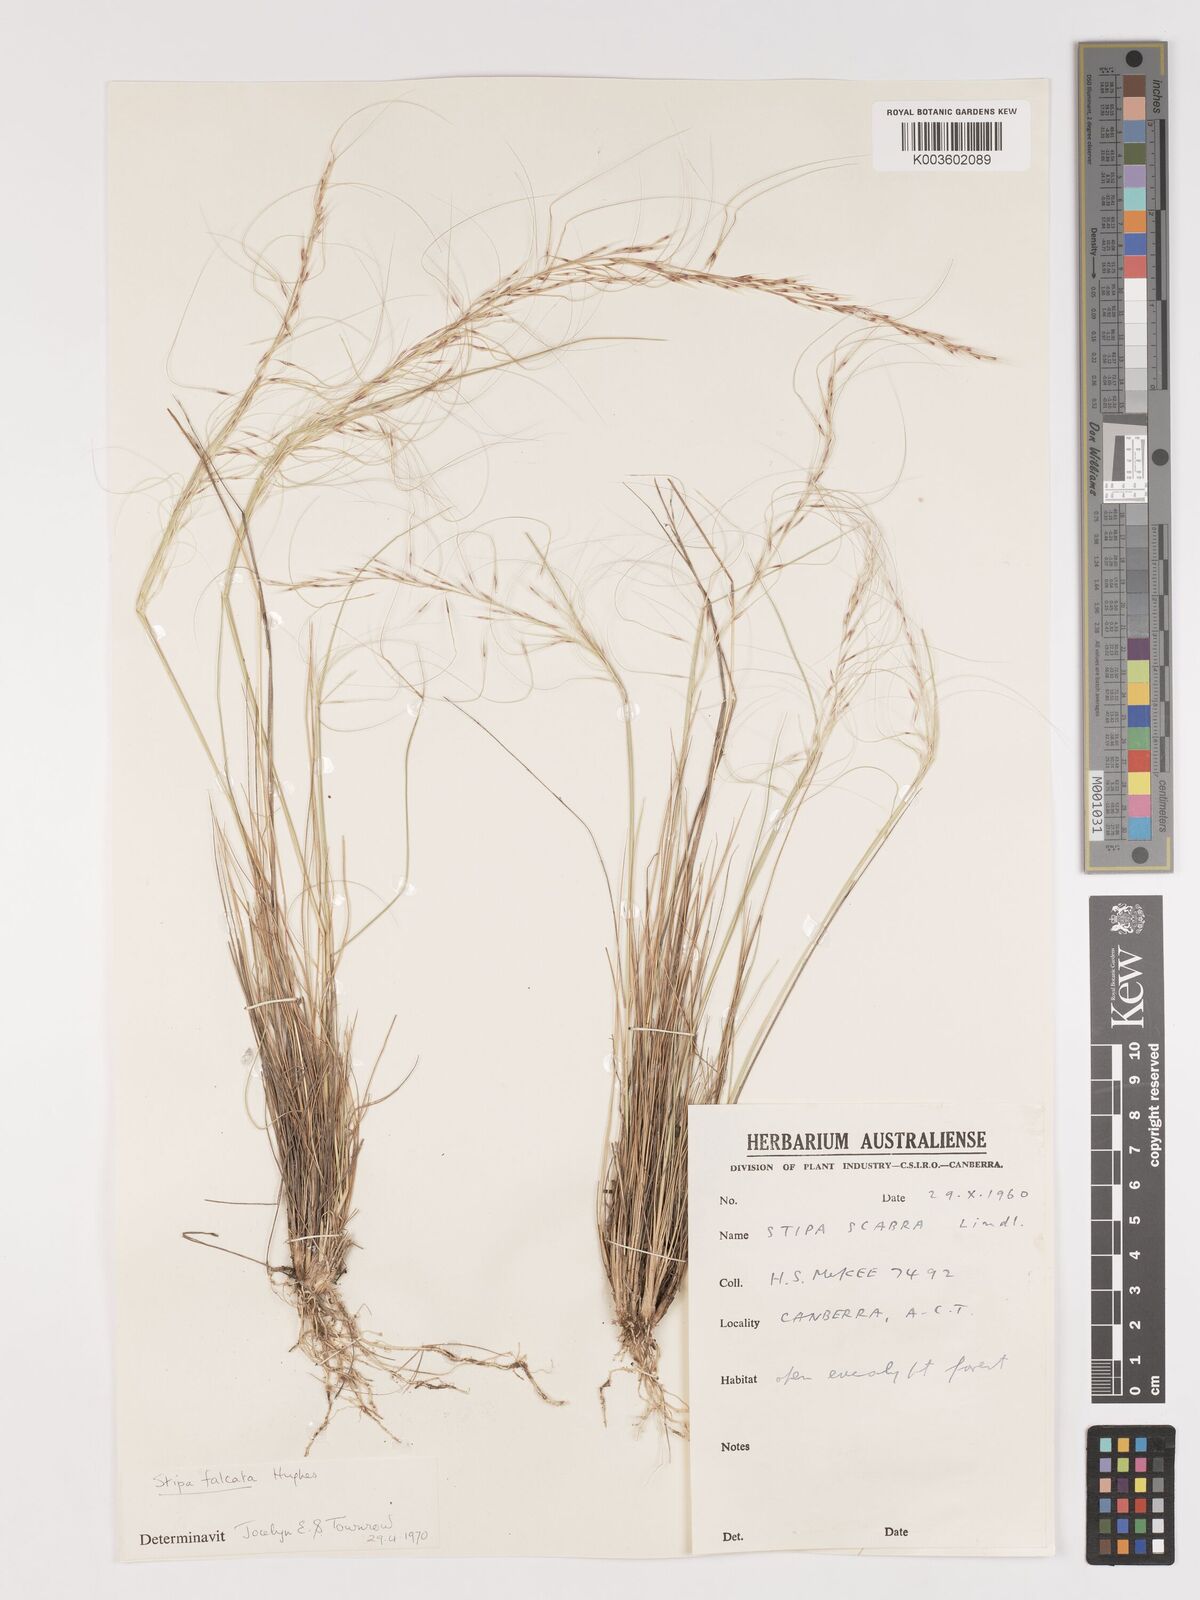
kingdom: Plantae
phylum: Tracheophyta
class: Liliopsida
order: Poales
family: Poaceae
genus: Austrostipa
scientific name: Austrostipa scabra
